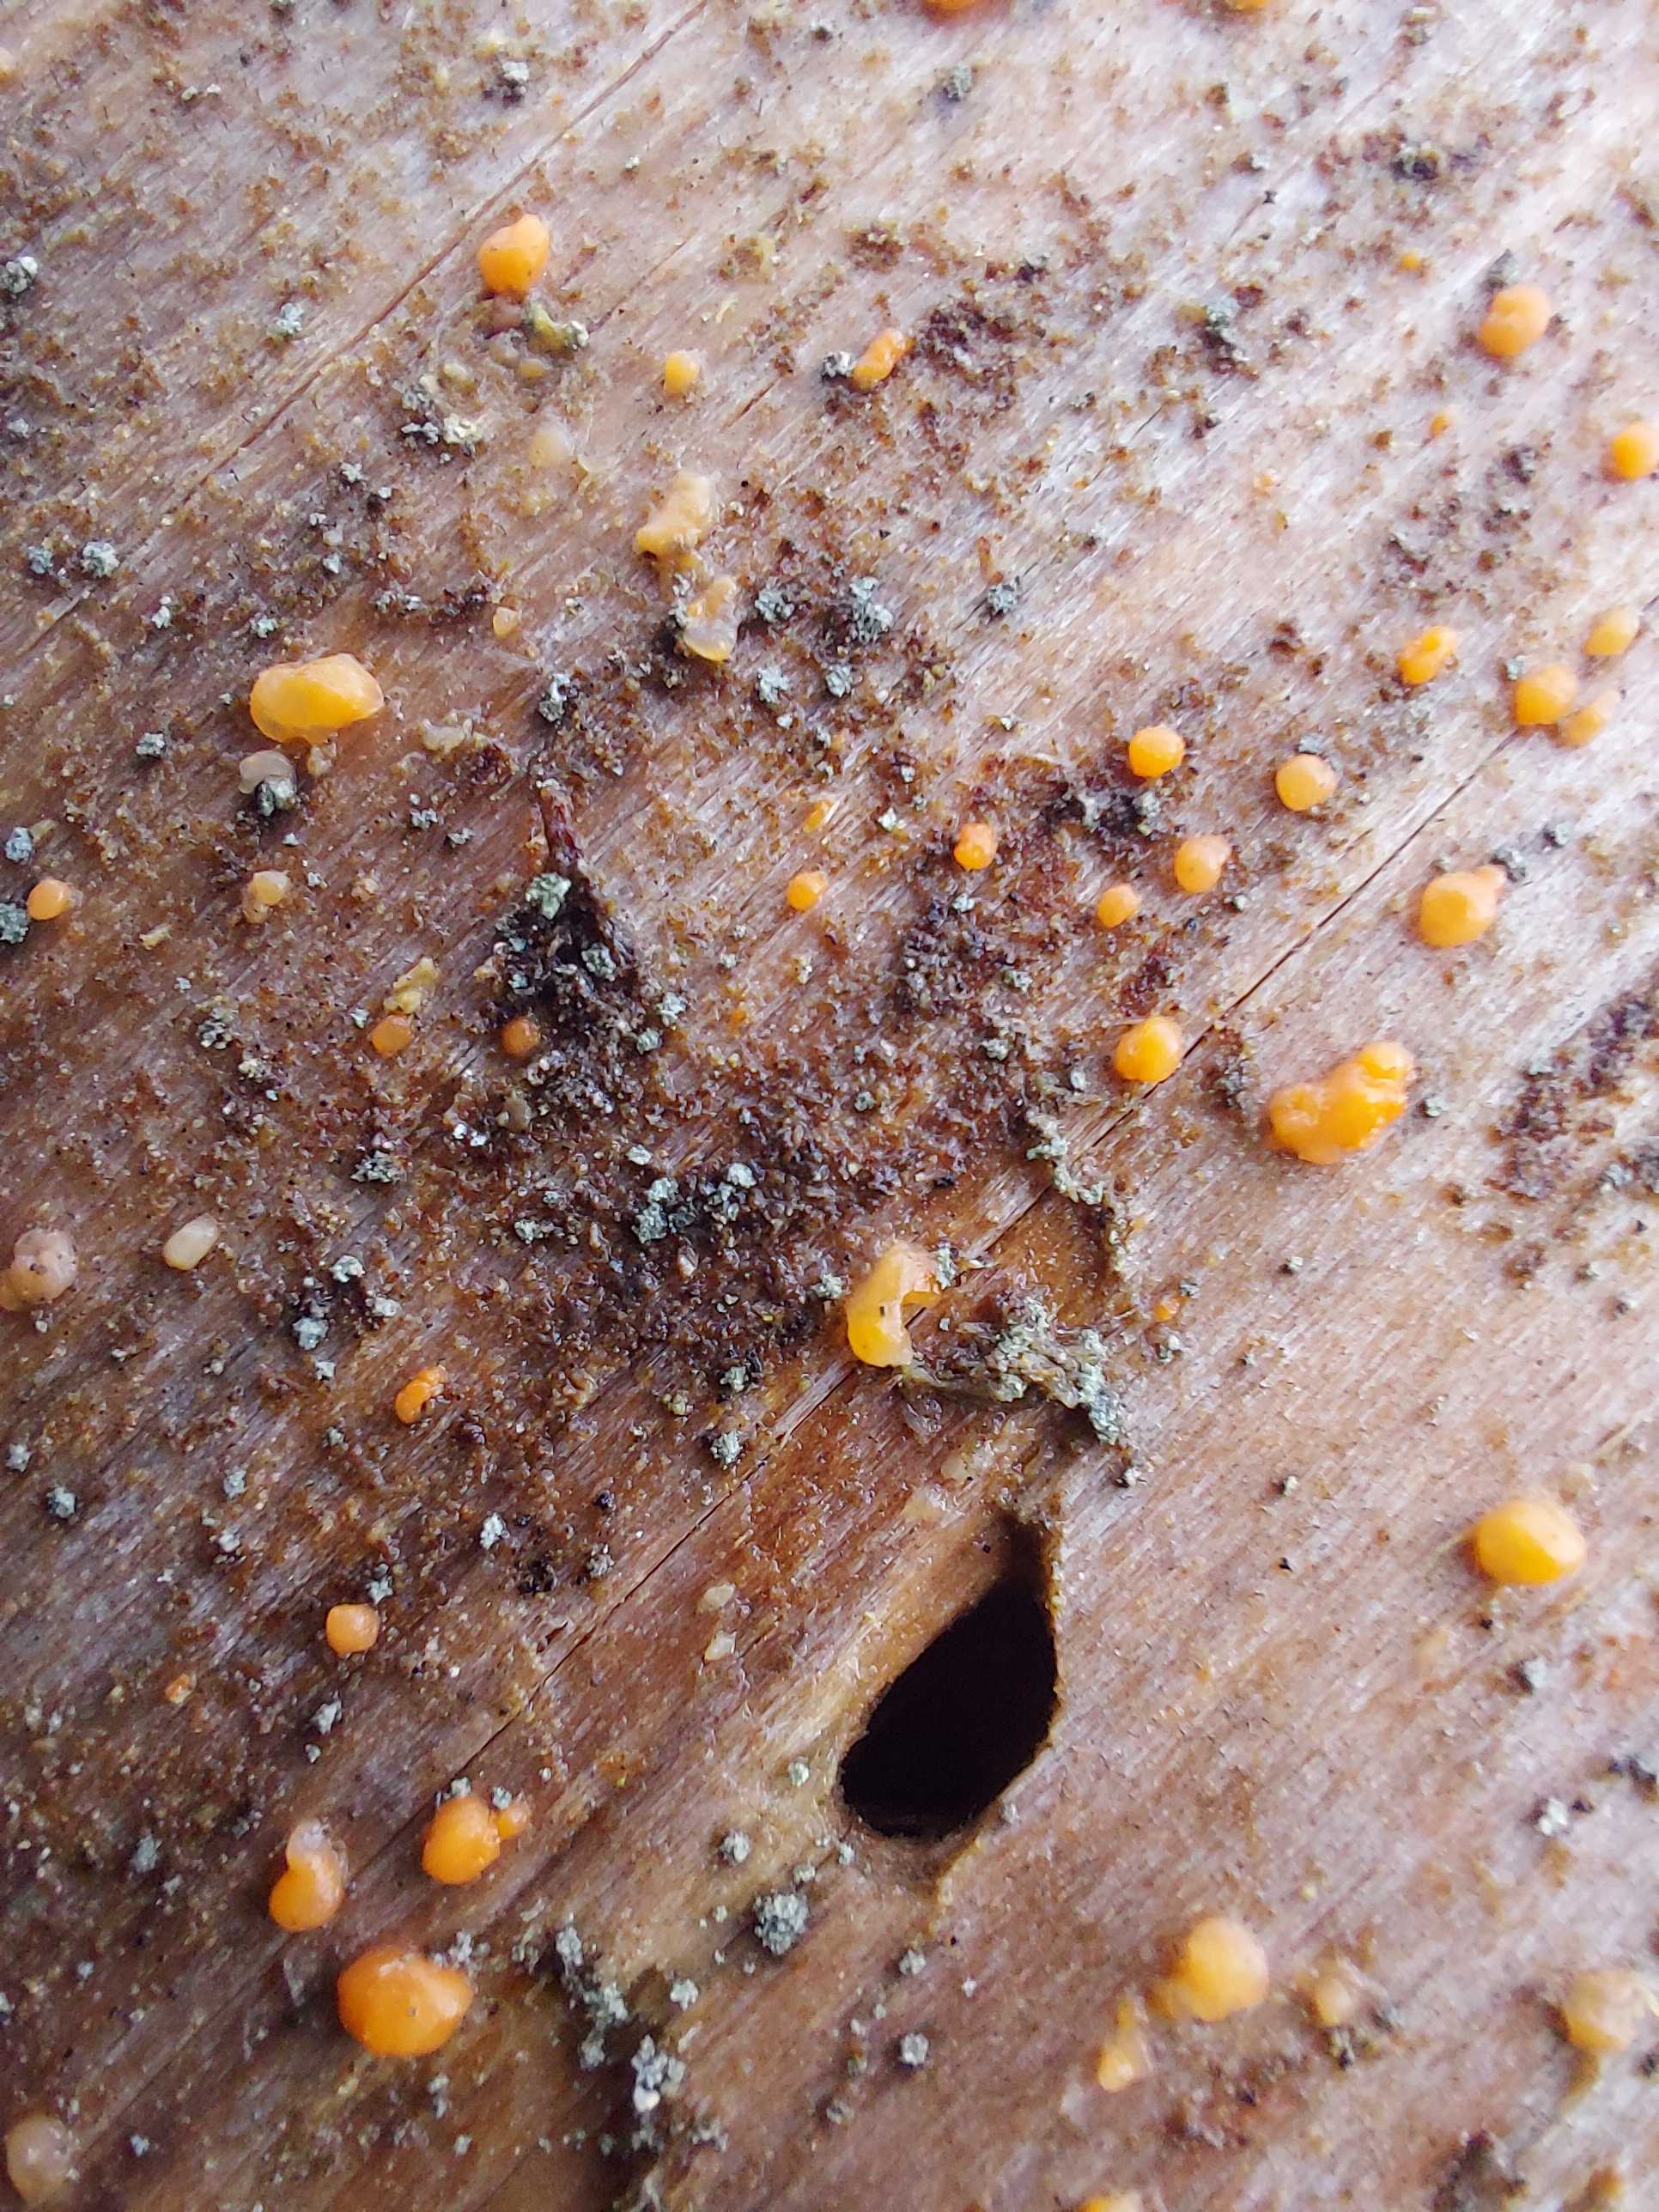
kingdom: Fungi
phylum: Basidiomycota
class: Dacrymycetes
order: Dacrymycetales
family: Dacrymycetaceae
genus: Dacrymyces
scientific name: Dacrymyces stillatus
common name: almindelig tåresvamp
